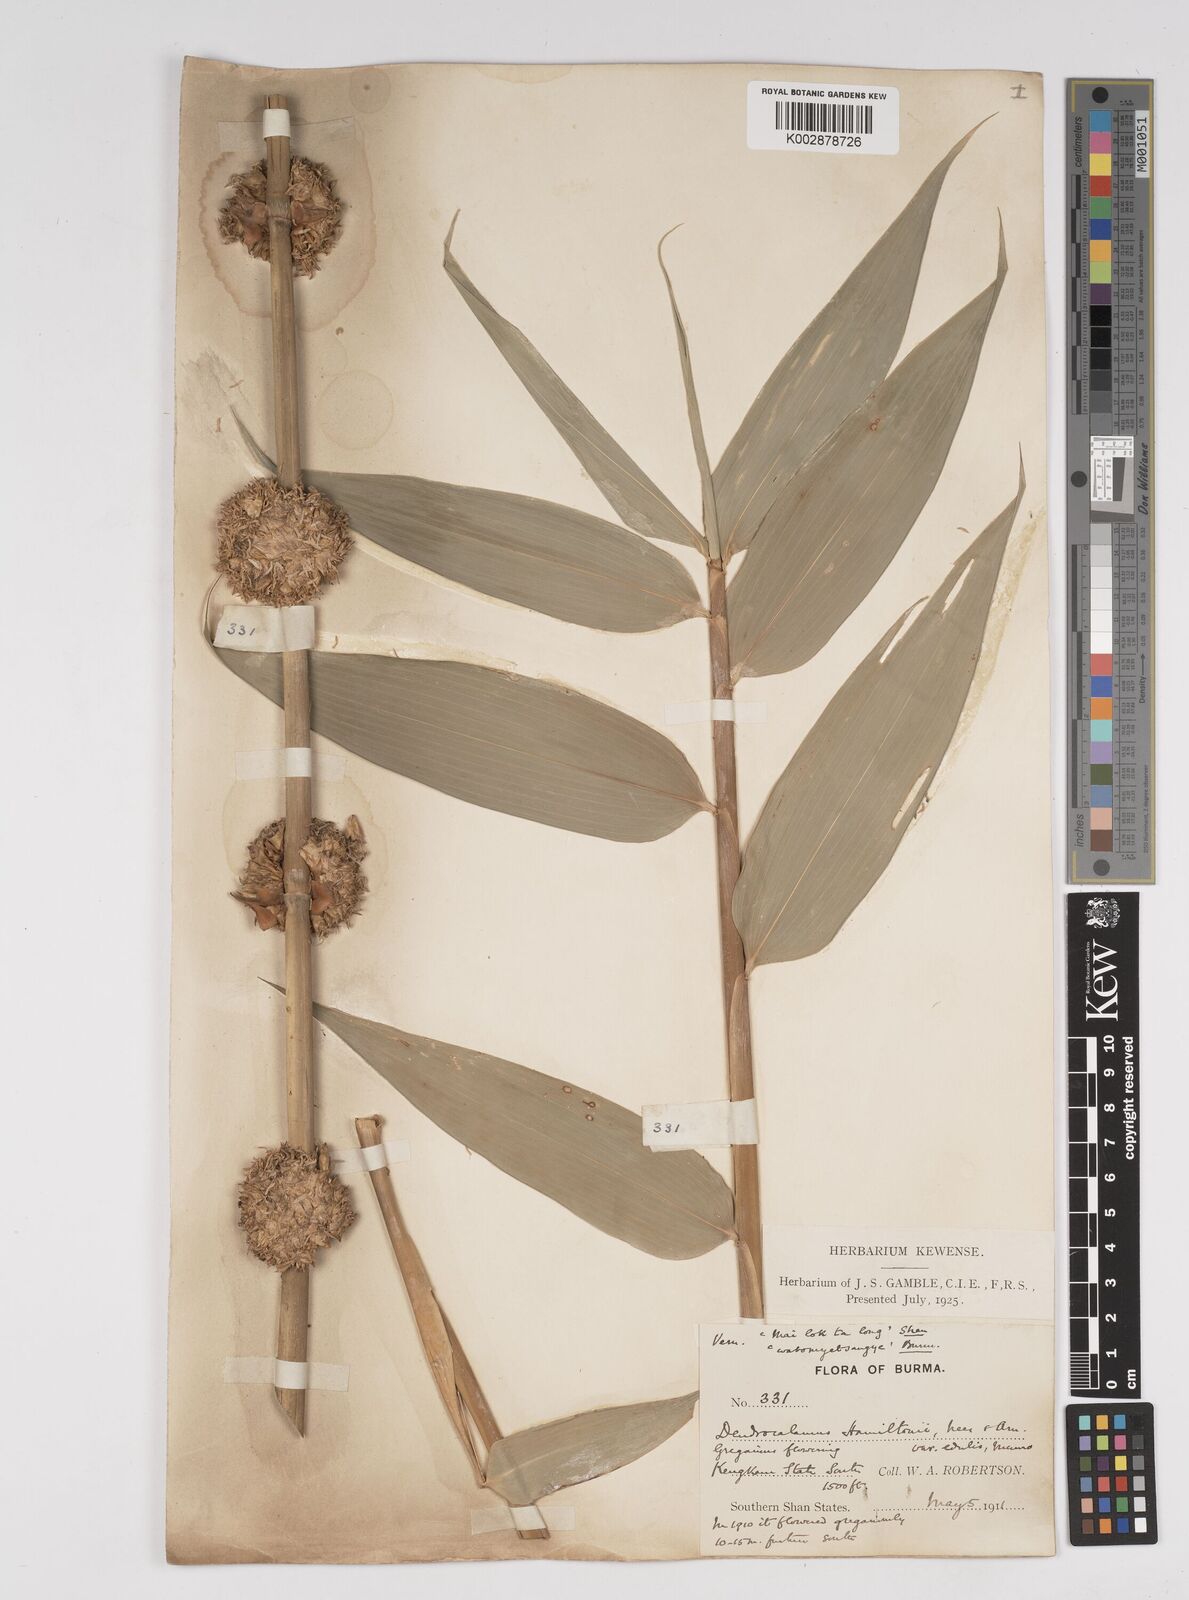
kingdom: Plantae
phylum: Tracheophyta
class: Liliopsida
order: Poales
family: Poaceae
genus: Dendrocalamus
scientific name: Dendrocalamus hamiltonii
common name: Tama bamboo
